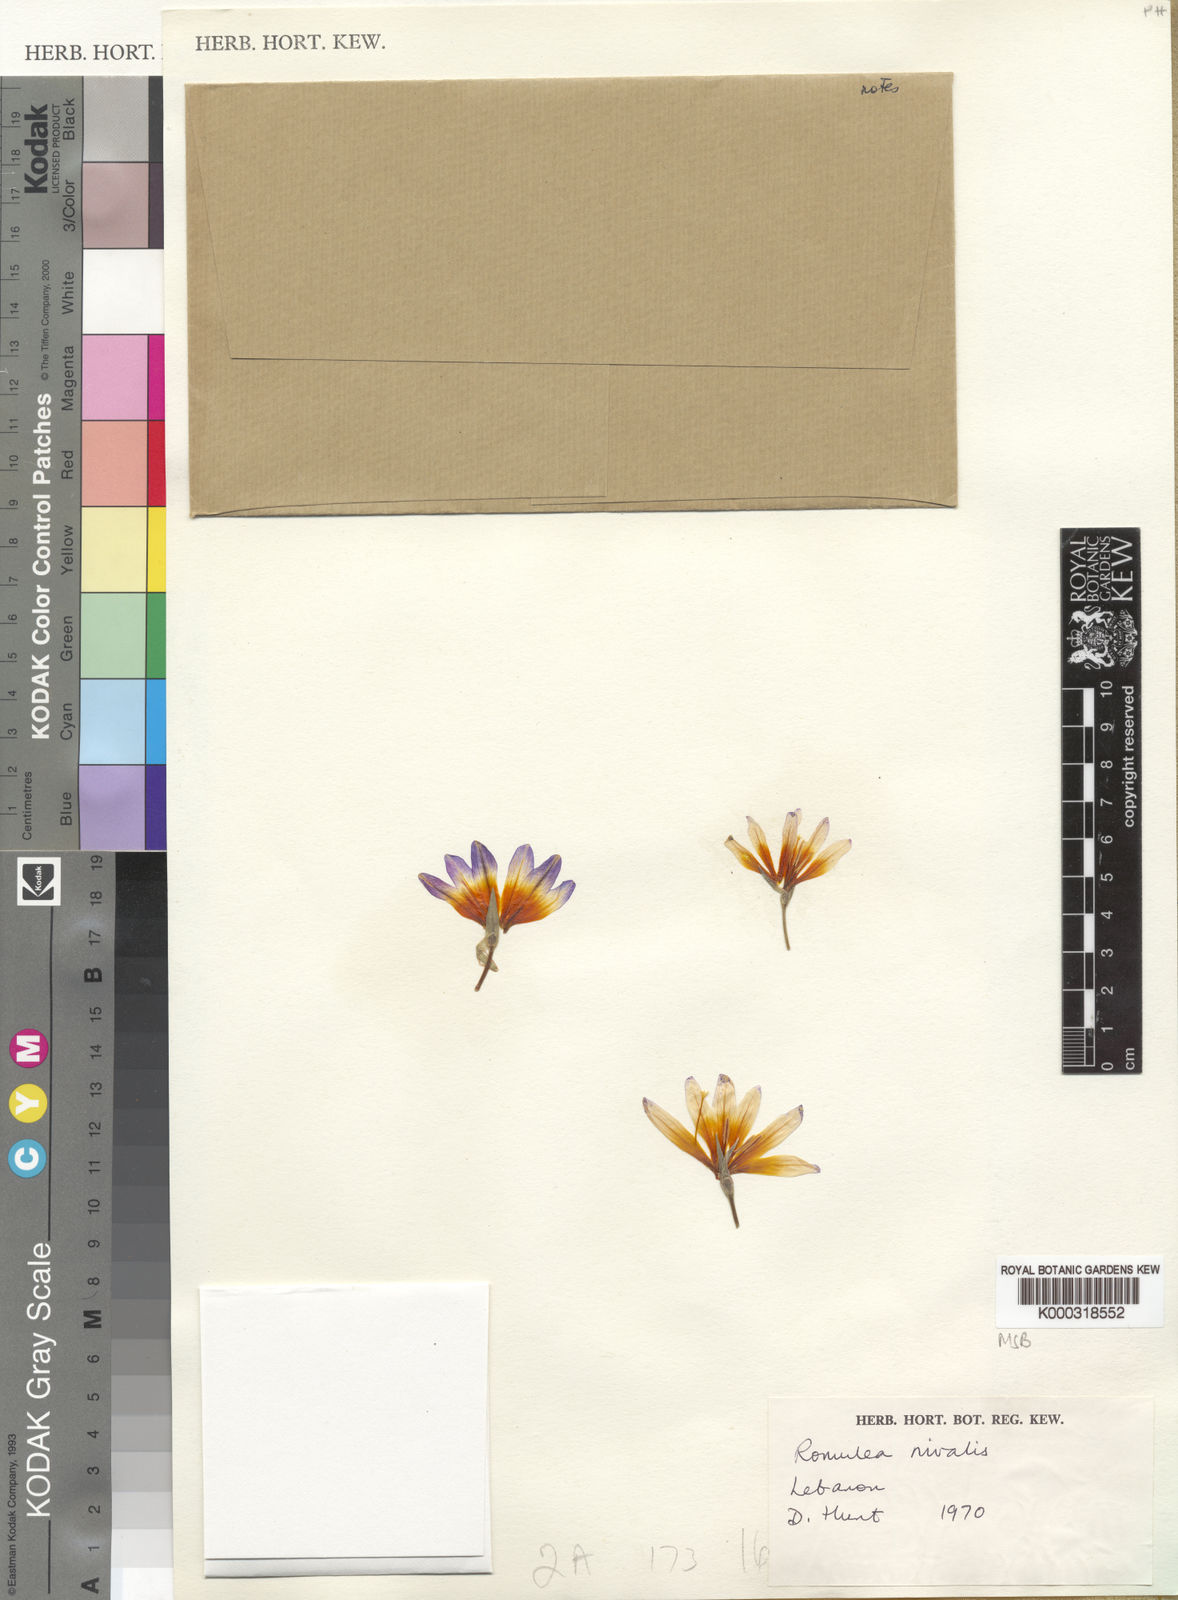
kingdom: Plantae
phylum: Tracheophyta
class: Liliopsida
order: Asparagales
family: Iridaceae
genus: Romulea
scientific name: Romulea nivalis
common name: Snow romulea
